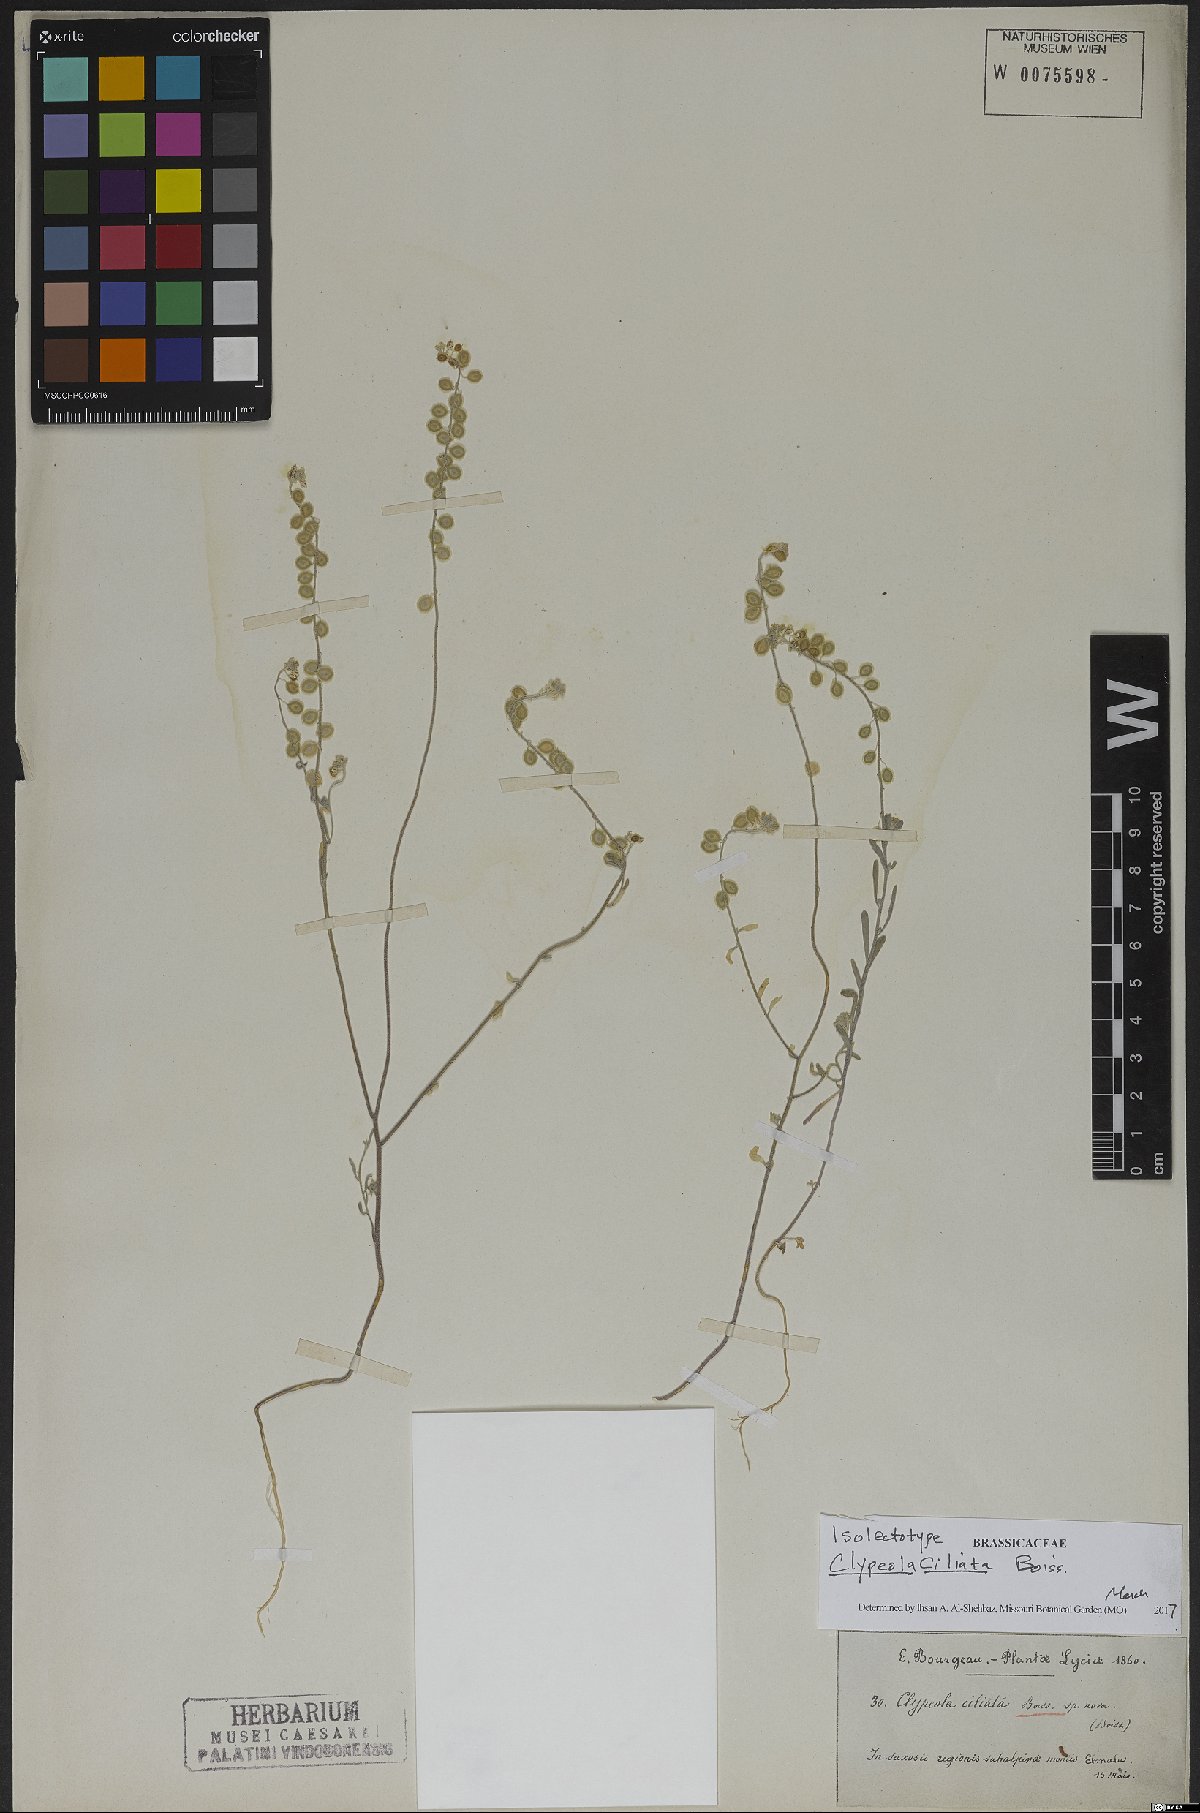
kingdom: Plantae
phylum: Tracheophyta
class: Magnoliopsida
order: Brassicales
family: Brassicaceae
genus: Clypeola
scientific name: Clypeola ciliata
